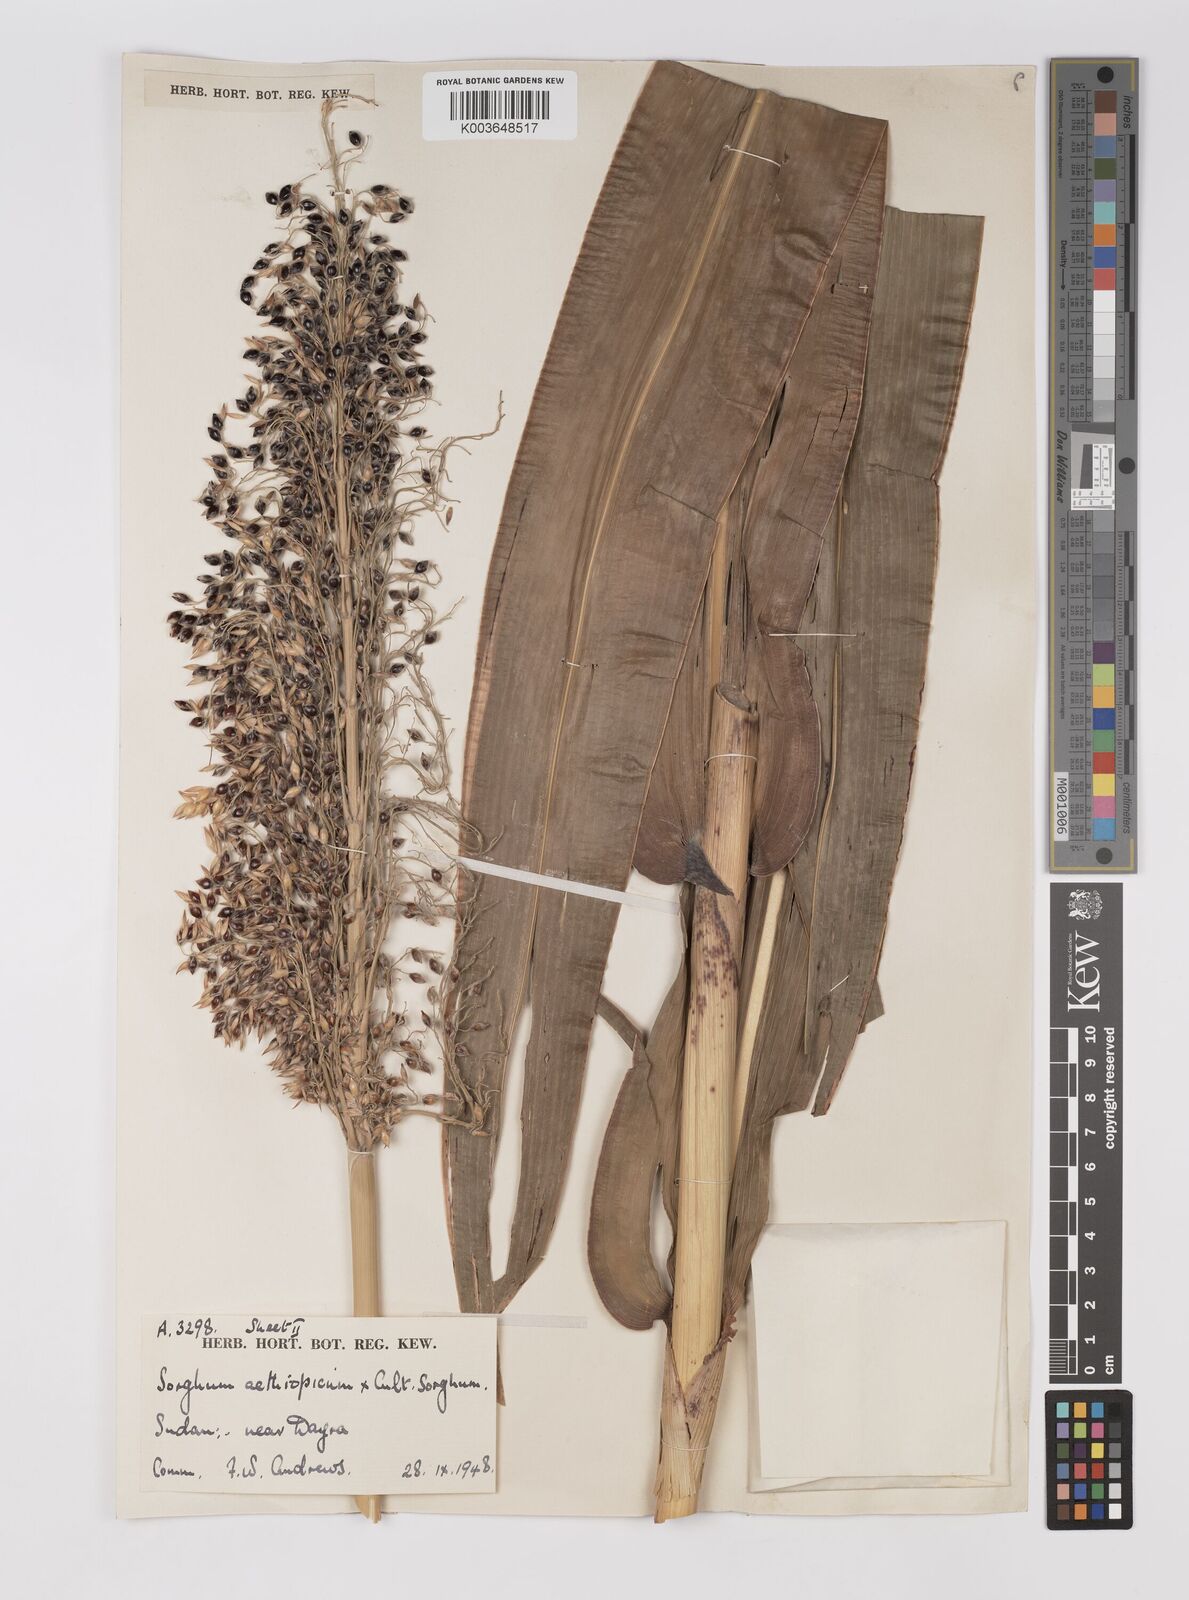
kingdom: Plantae
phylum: Tracheophyta
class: Liliopsida
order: Poales
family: Poaceae
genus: Sorghum
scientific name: Sorghum drummondii
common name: Sudangrass
